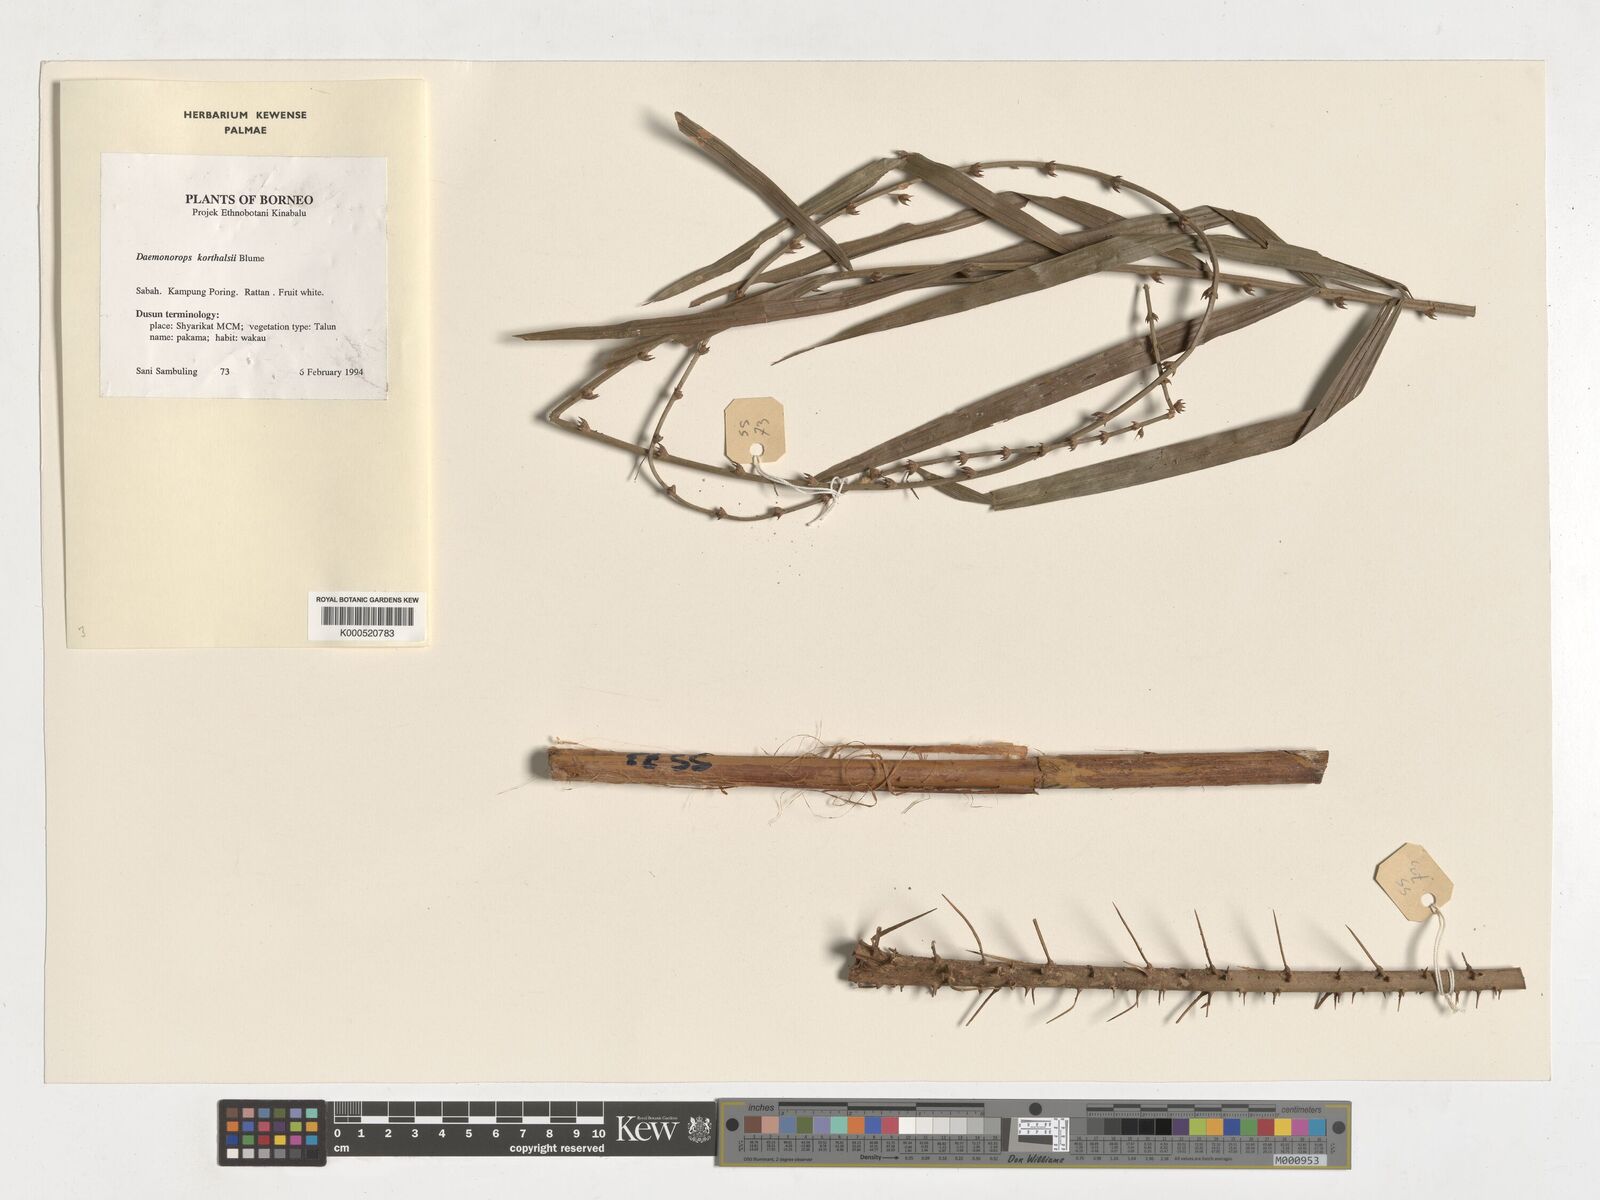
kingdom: Plantae
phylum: Tracheophyta
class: Liliopsida
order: Arecales
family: Arecaceae
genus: Calamus
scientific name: Calamus hirsutus
